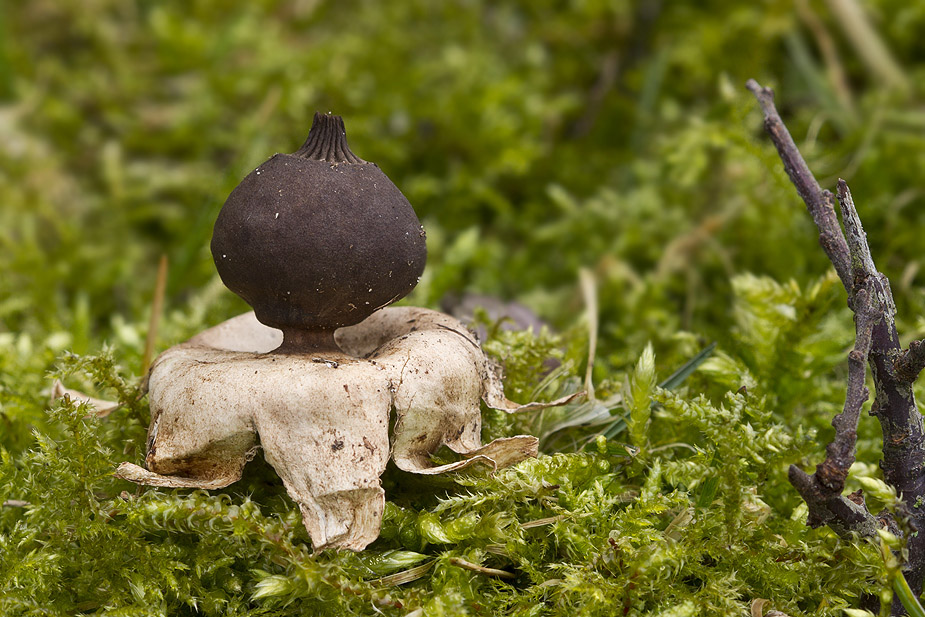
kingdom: Fungi
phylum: Basidiomycota
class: Agaricomycetes
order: Geastrales
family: Geastraceae
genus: Geastrum
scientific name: Geastrum pectinatum
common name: stilket stjernebold
